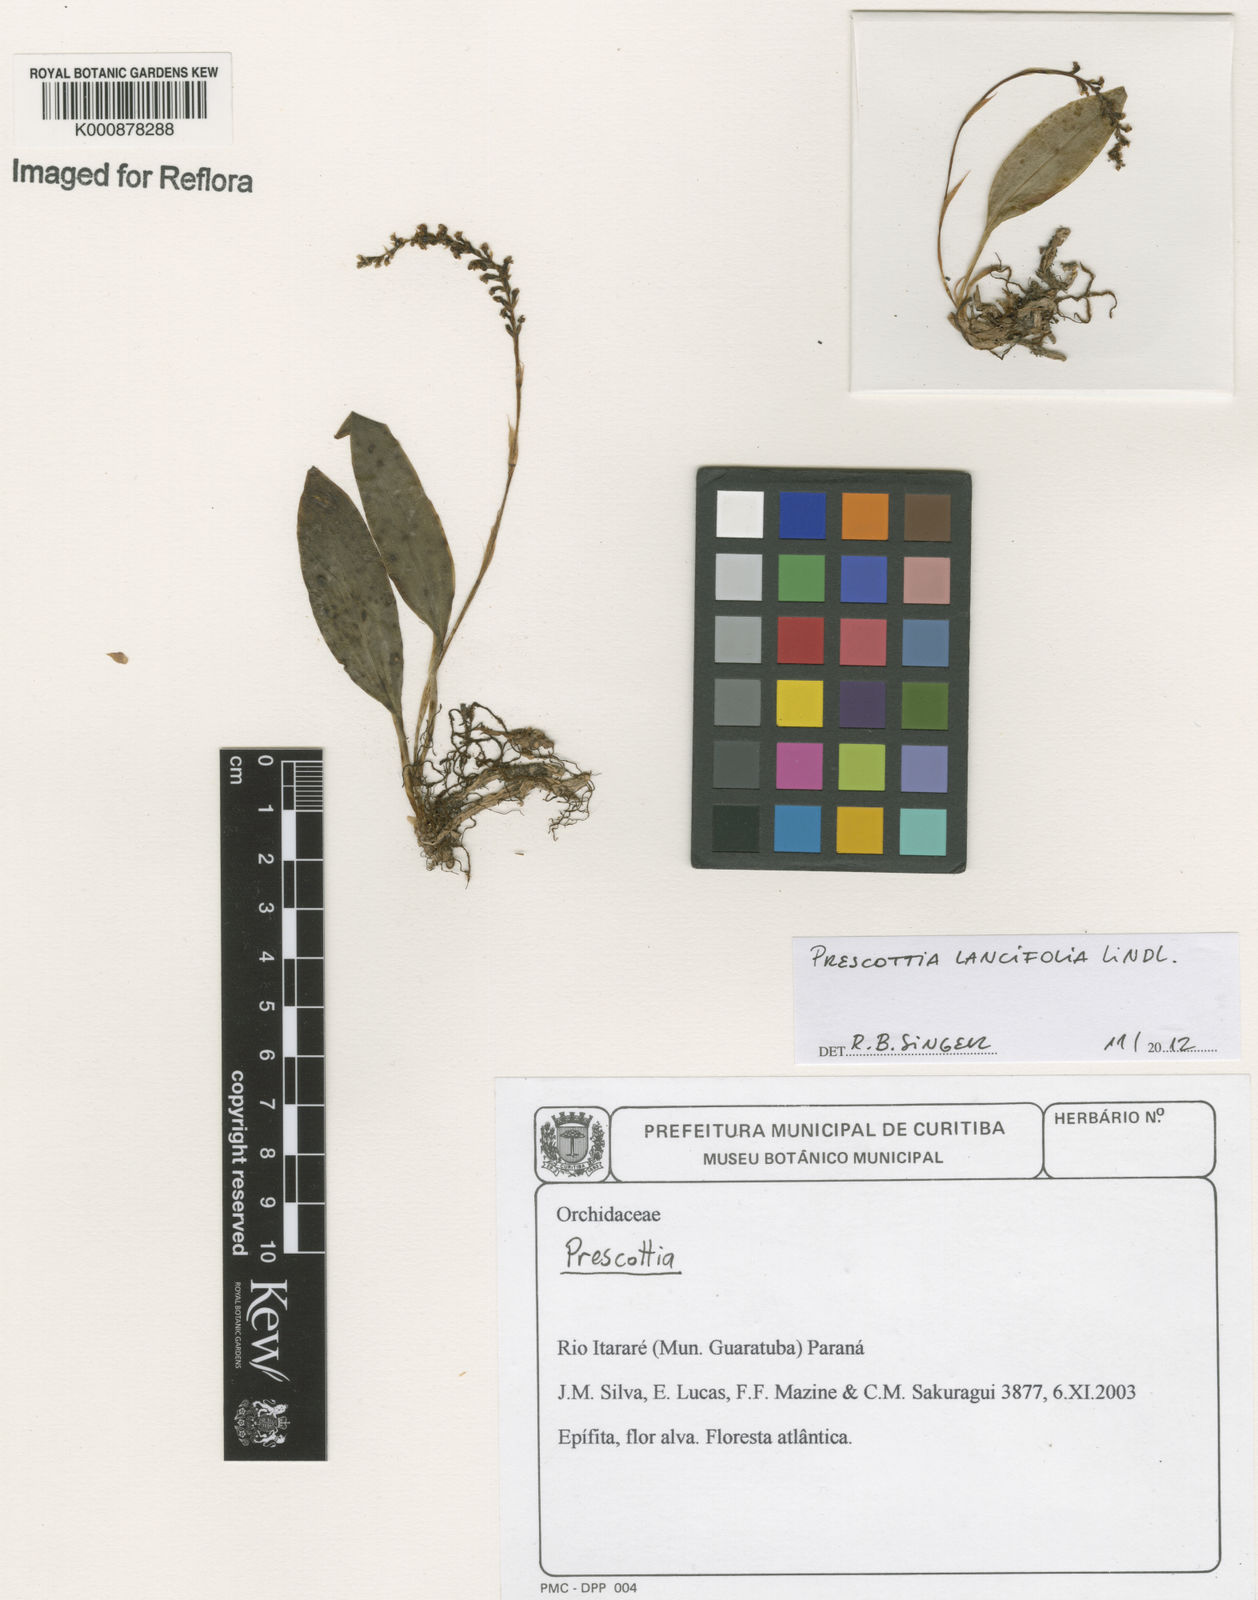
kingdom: Plantae
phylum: Tracheophyta
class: Liliopsida
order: Asparagales
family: Orchidaceae
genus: Prescottia
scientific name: Prescottia lancifolia
